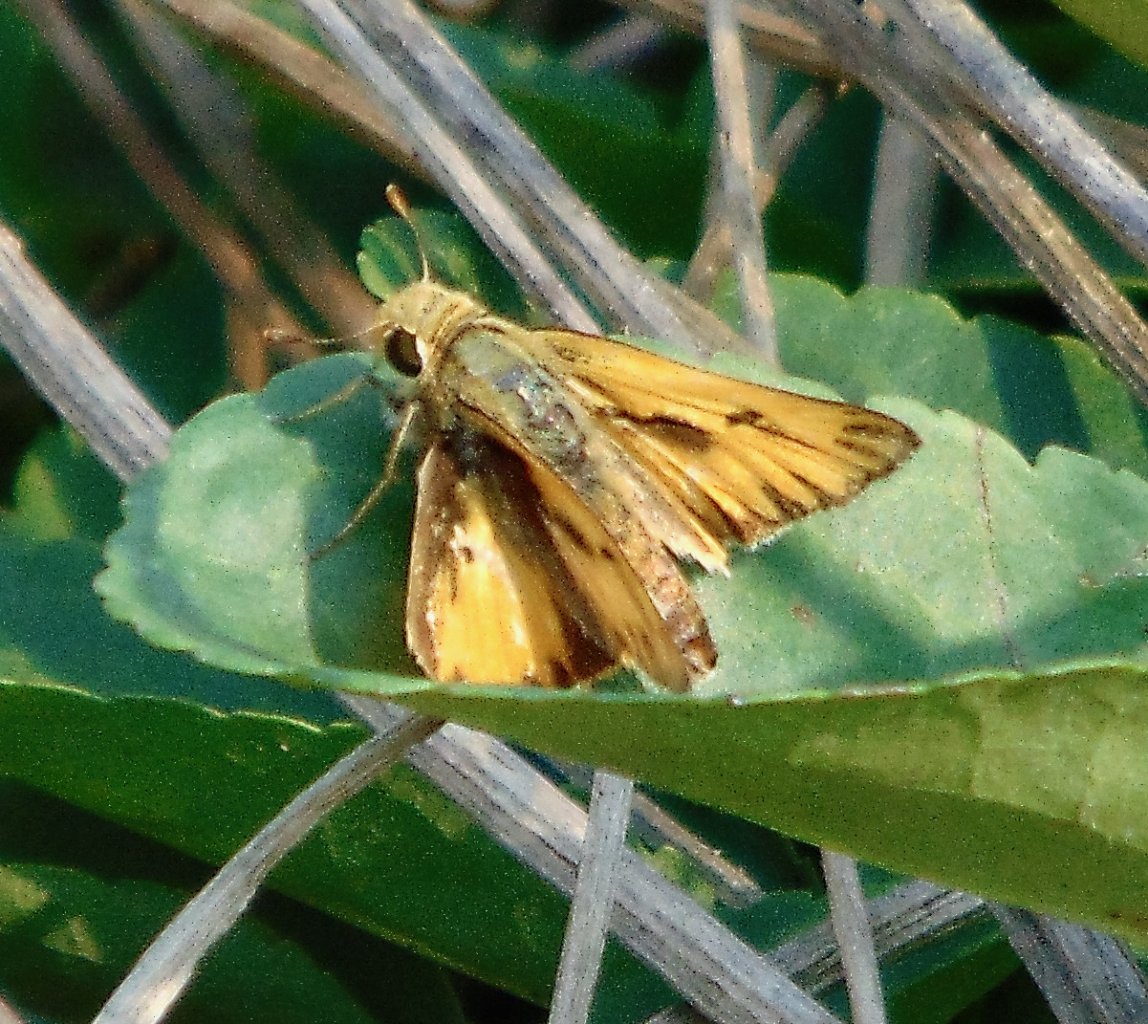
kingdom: Animalia
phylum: Arthropoda
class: Insecta
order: Lepidoptera
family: Hesperiidae
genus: Hylephila
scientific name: Hylephila phyleus
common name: Fiery Skipper
